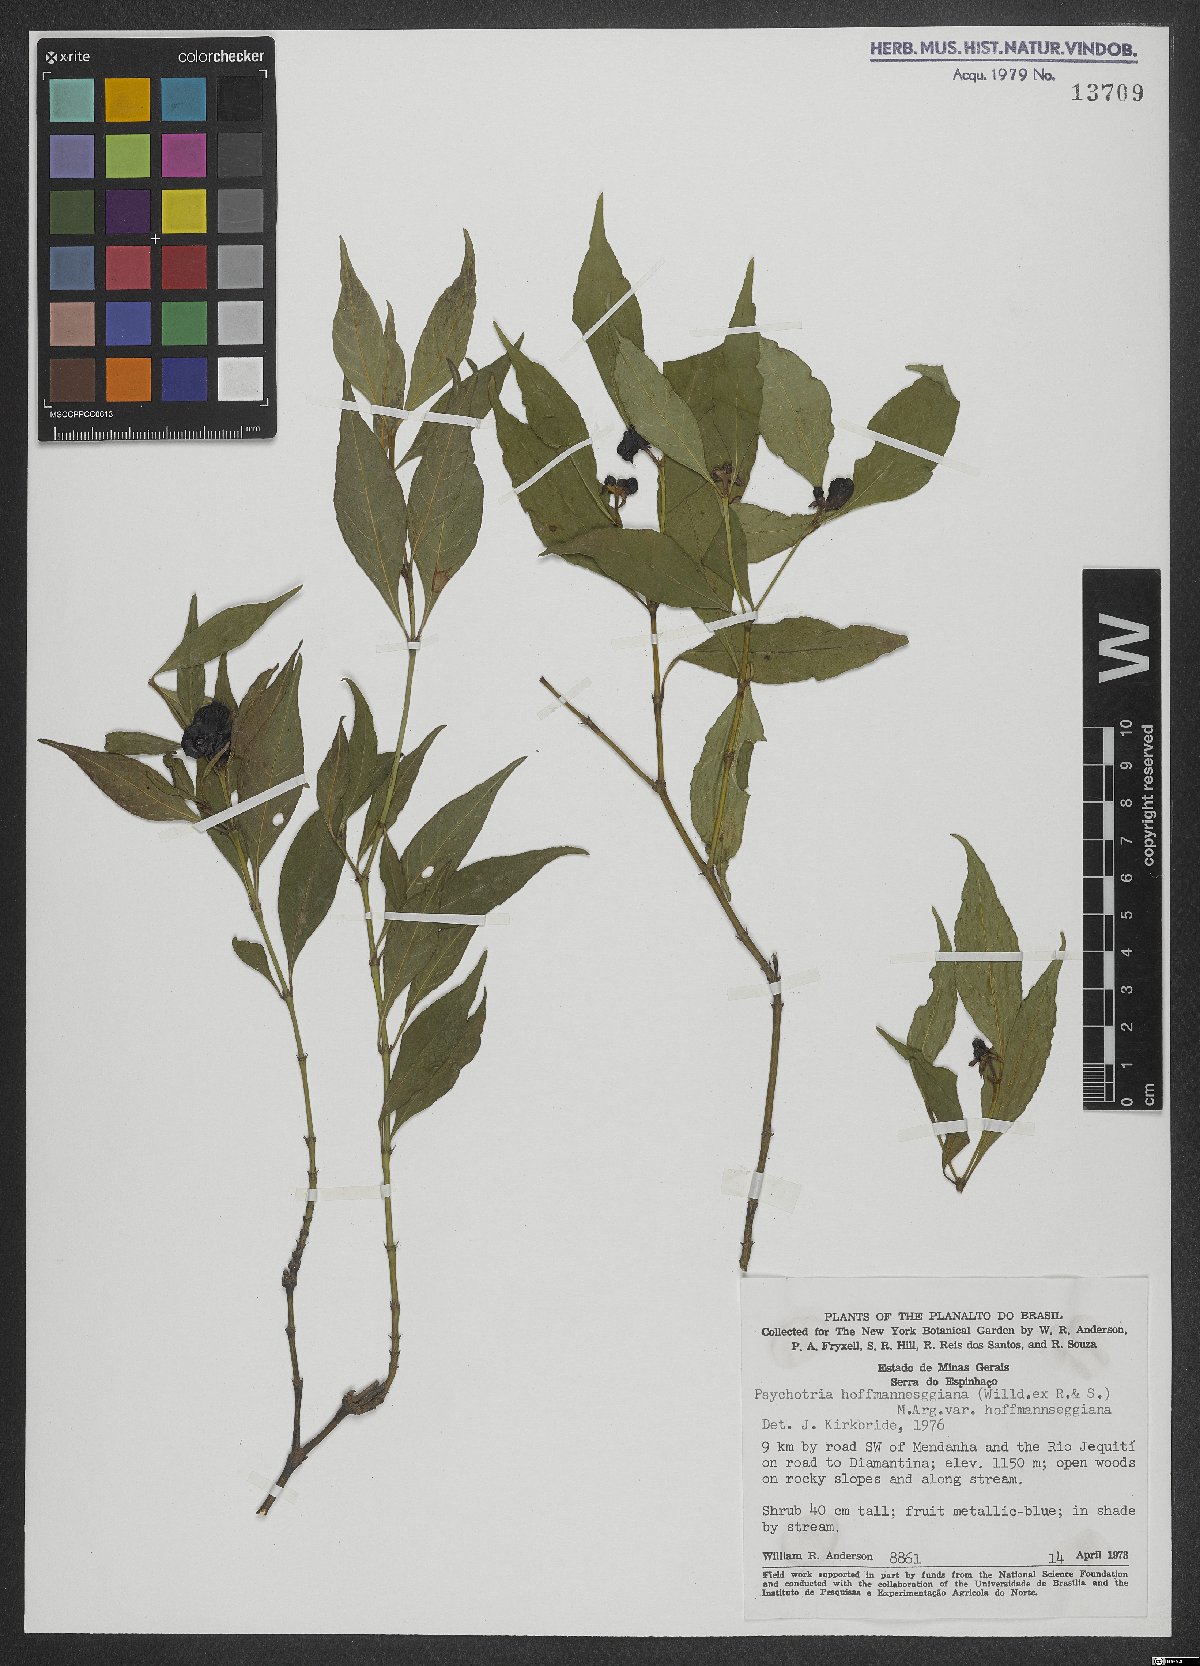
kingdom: Plantae
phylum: Tracheophyta
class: Magnoliopsida
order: Gentianales
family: Rubiaceae
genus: Palicourea
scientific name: Palicourea hoffmannseggiana
